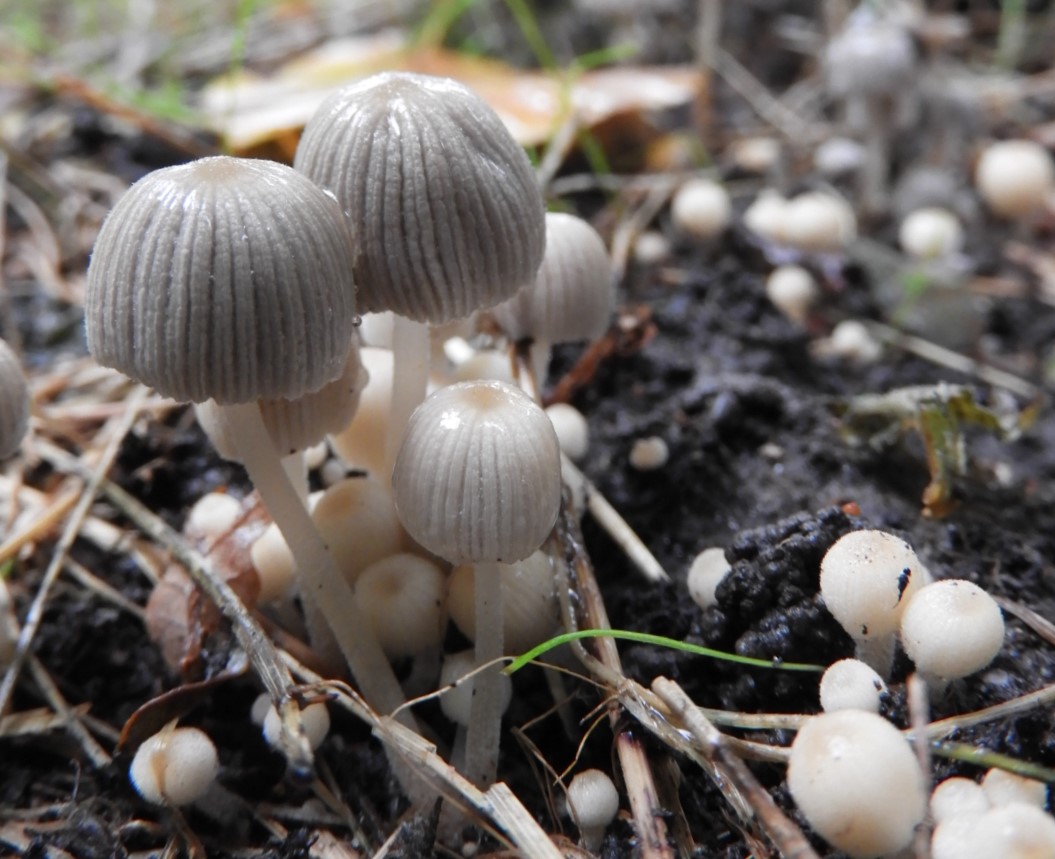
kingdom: Fungi
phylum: Basidiomycota
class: Agaricomycetes
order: Agaricales
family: Psathyrellaceae
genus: Coprinellus
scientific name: Coprinellus disseminatus
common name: bredsået blækhat
